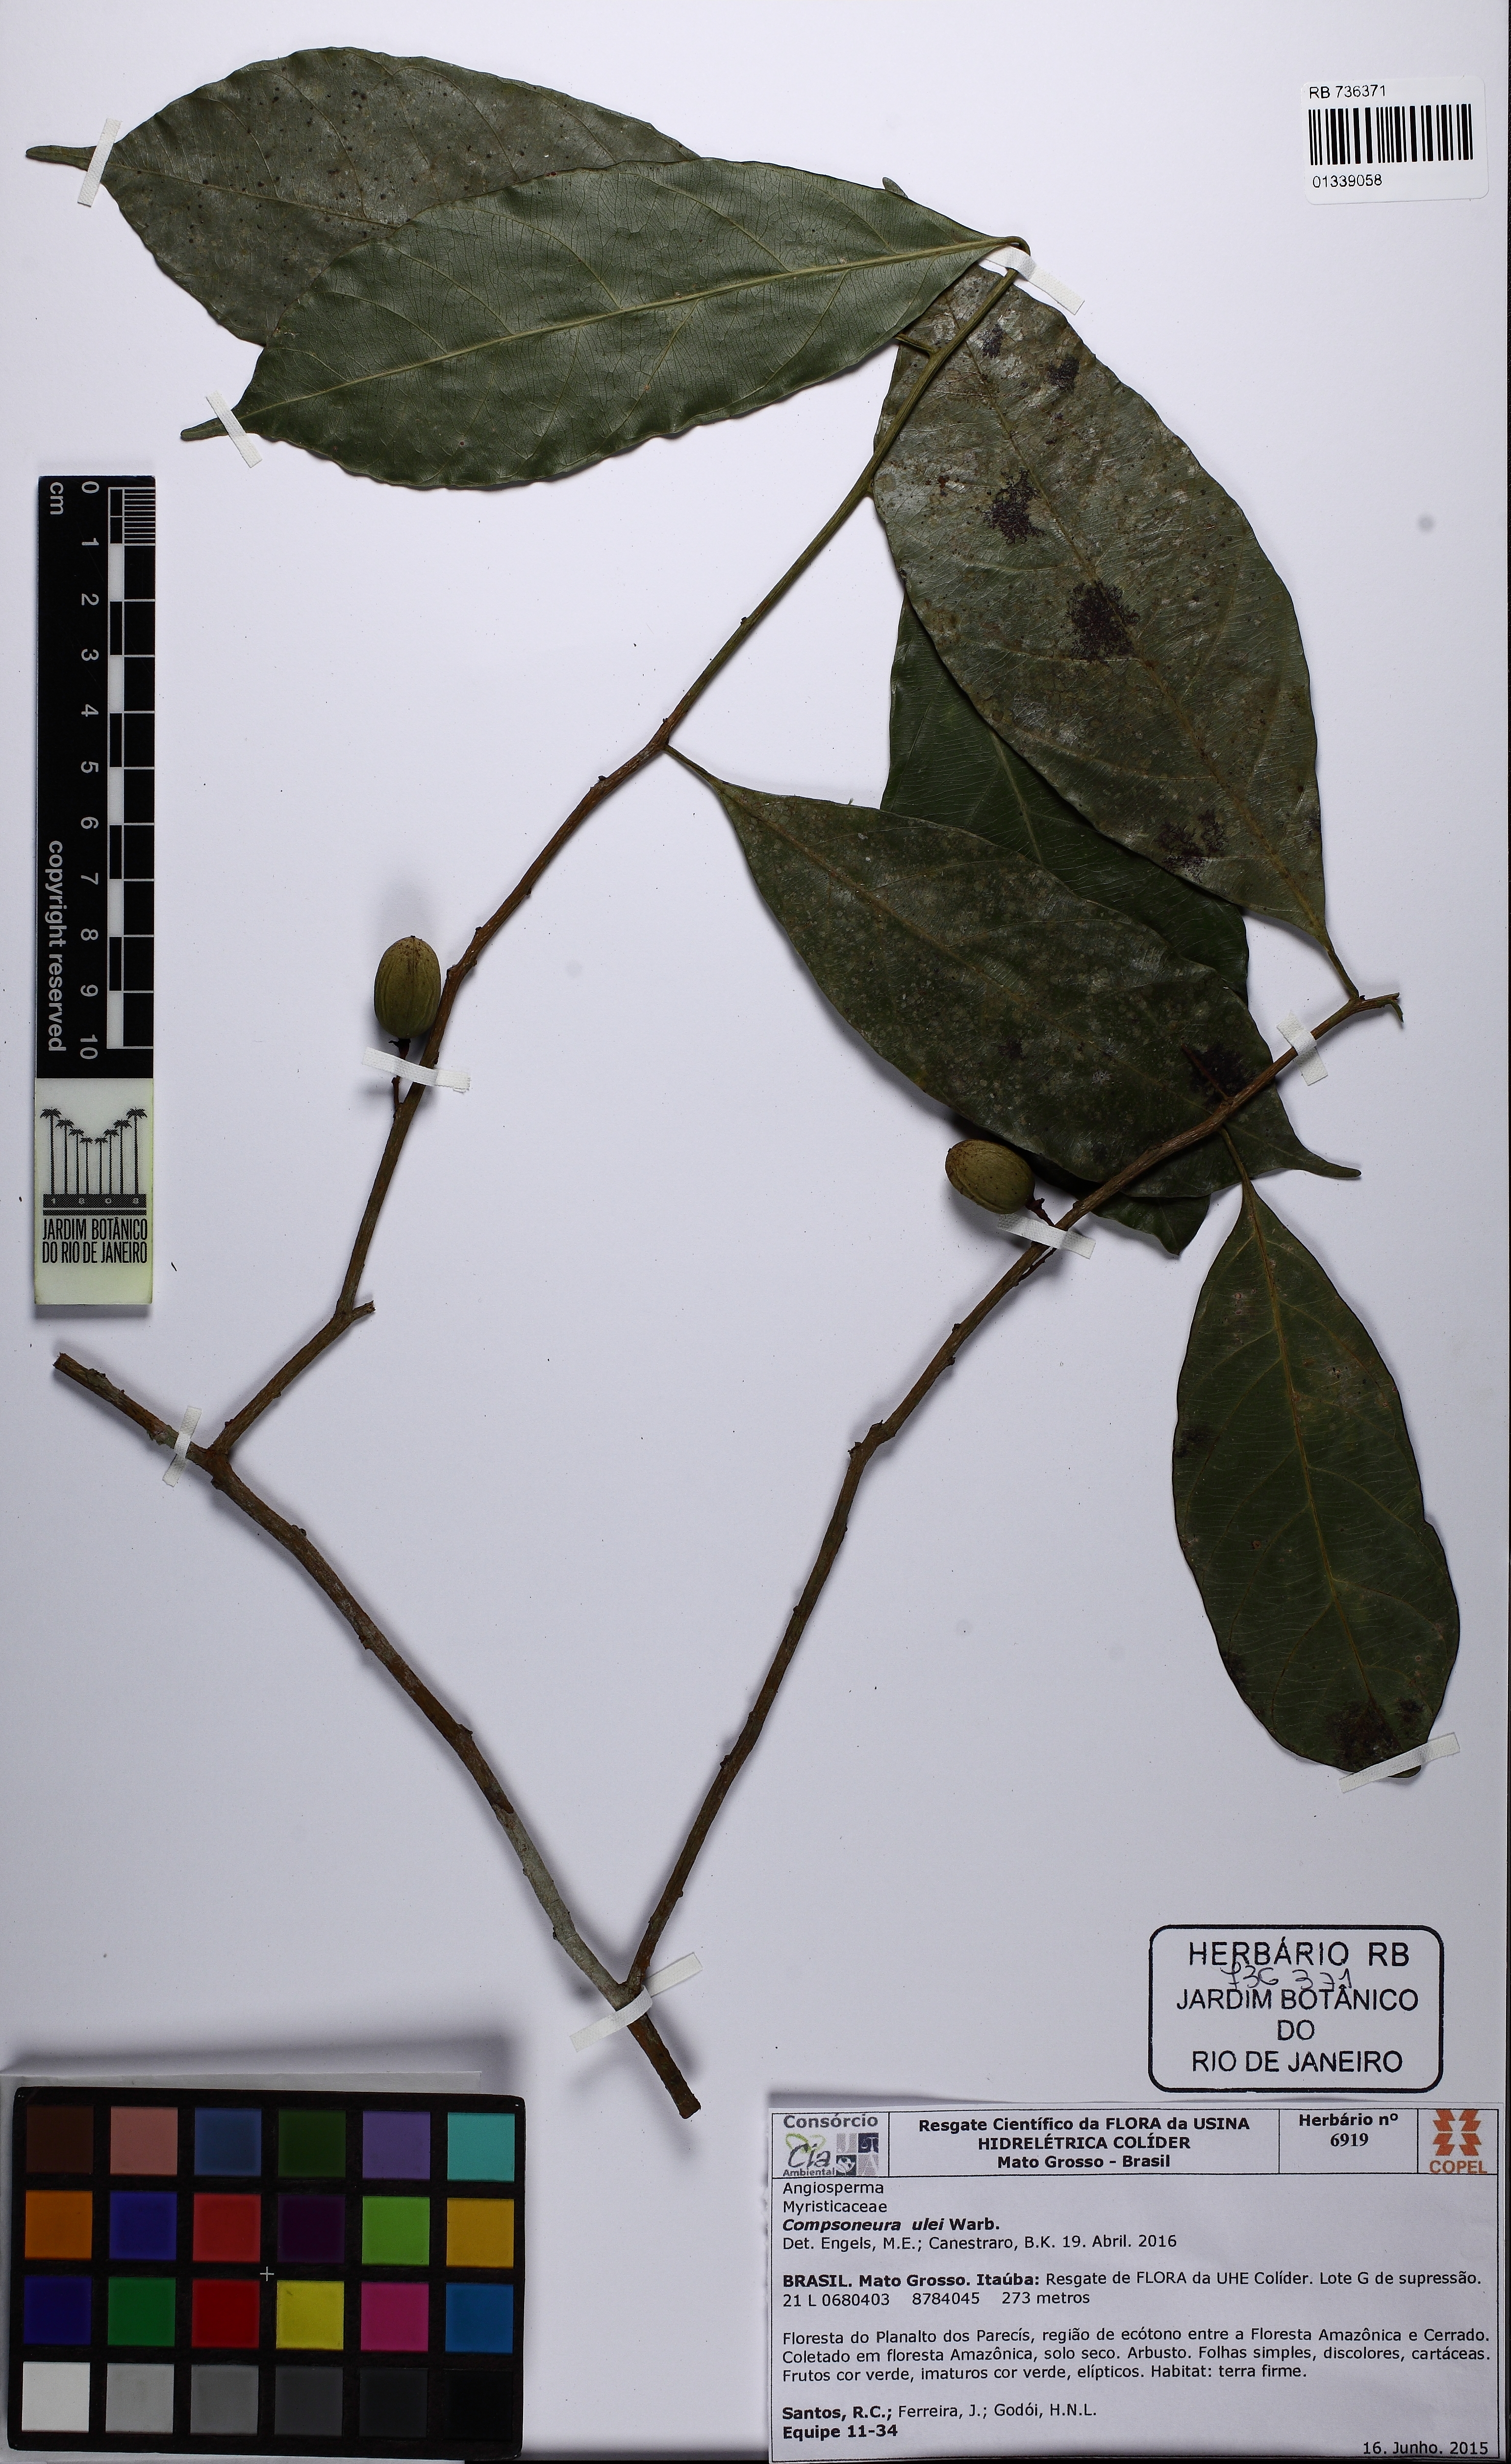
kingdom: Plantae
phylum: Tracheophyta
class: Magnoliopsida
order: Magnoliales
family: Myristicaceae
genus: Compsoneura
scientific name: Compsoneura ulei
